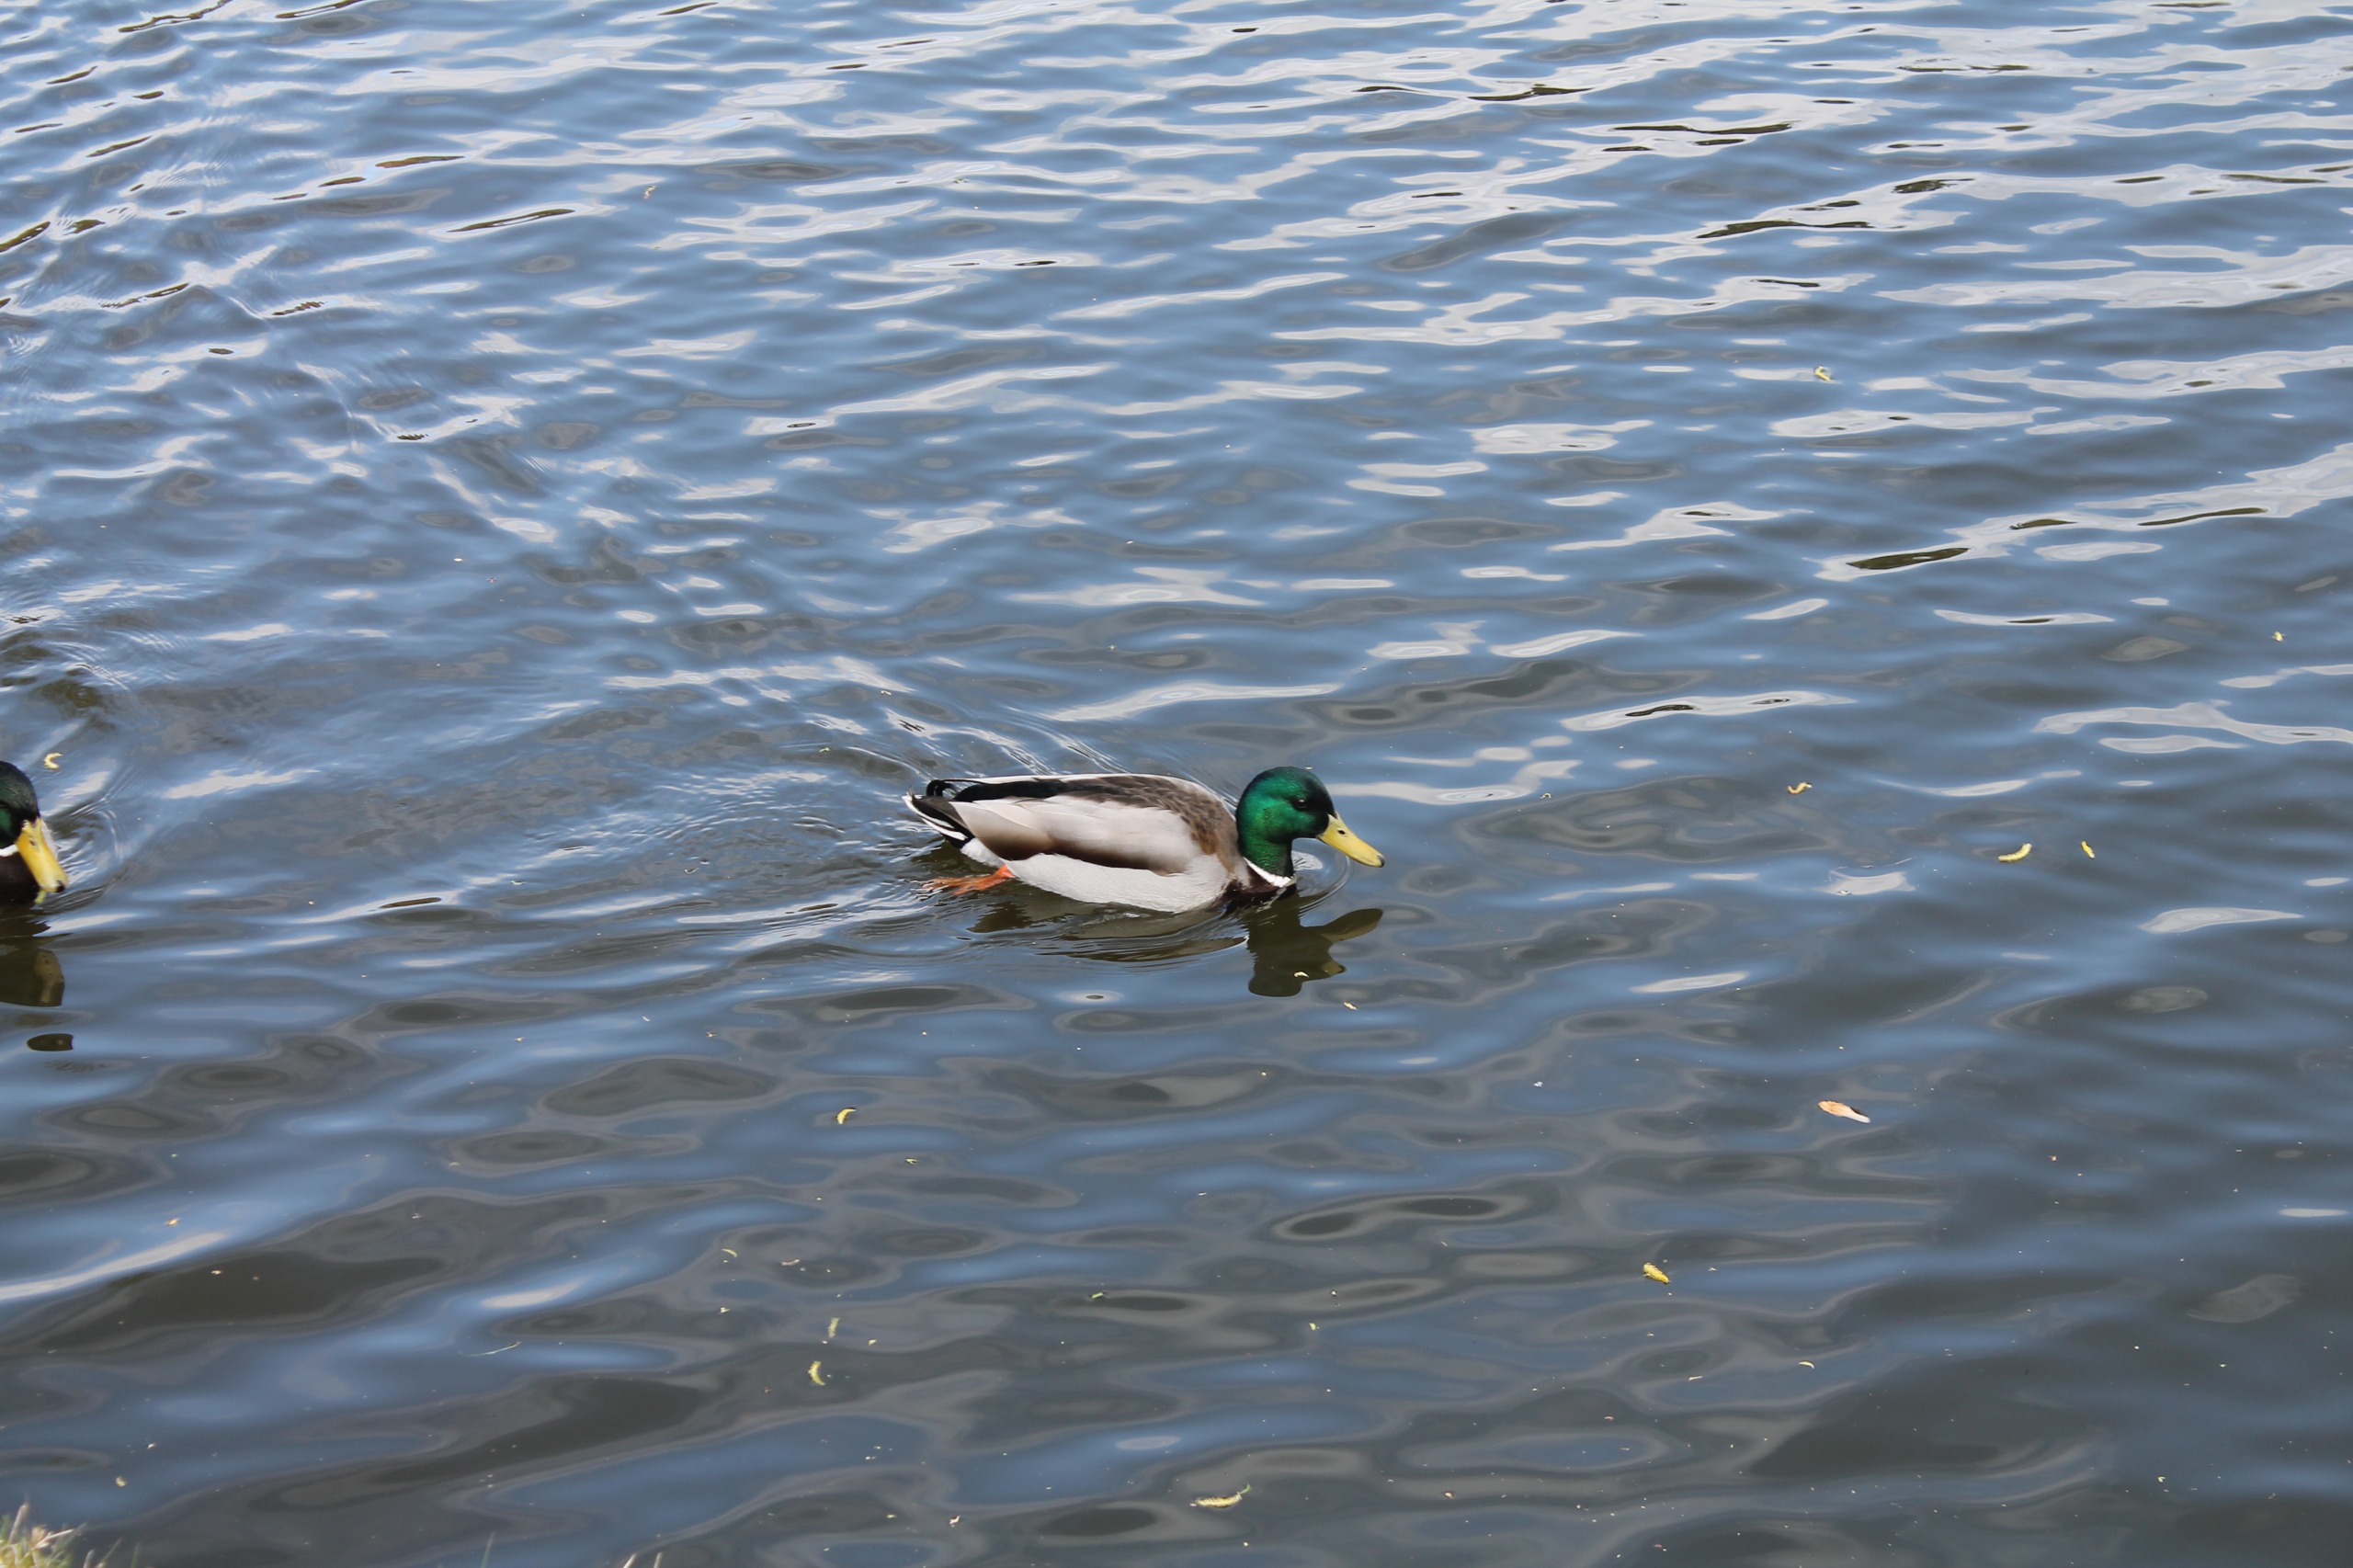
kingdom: Animalia
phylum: Chordata
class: Aves
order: Anseriformes
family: Anatidae
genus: Anas
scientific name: Anas platyrhynchos
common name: Gråand
